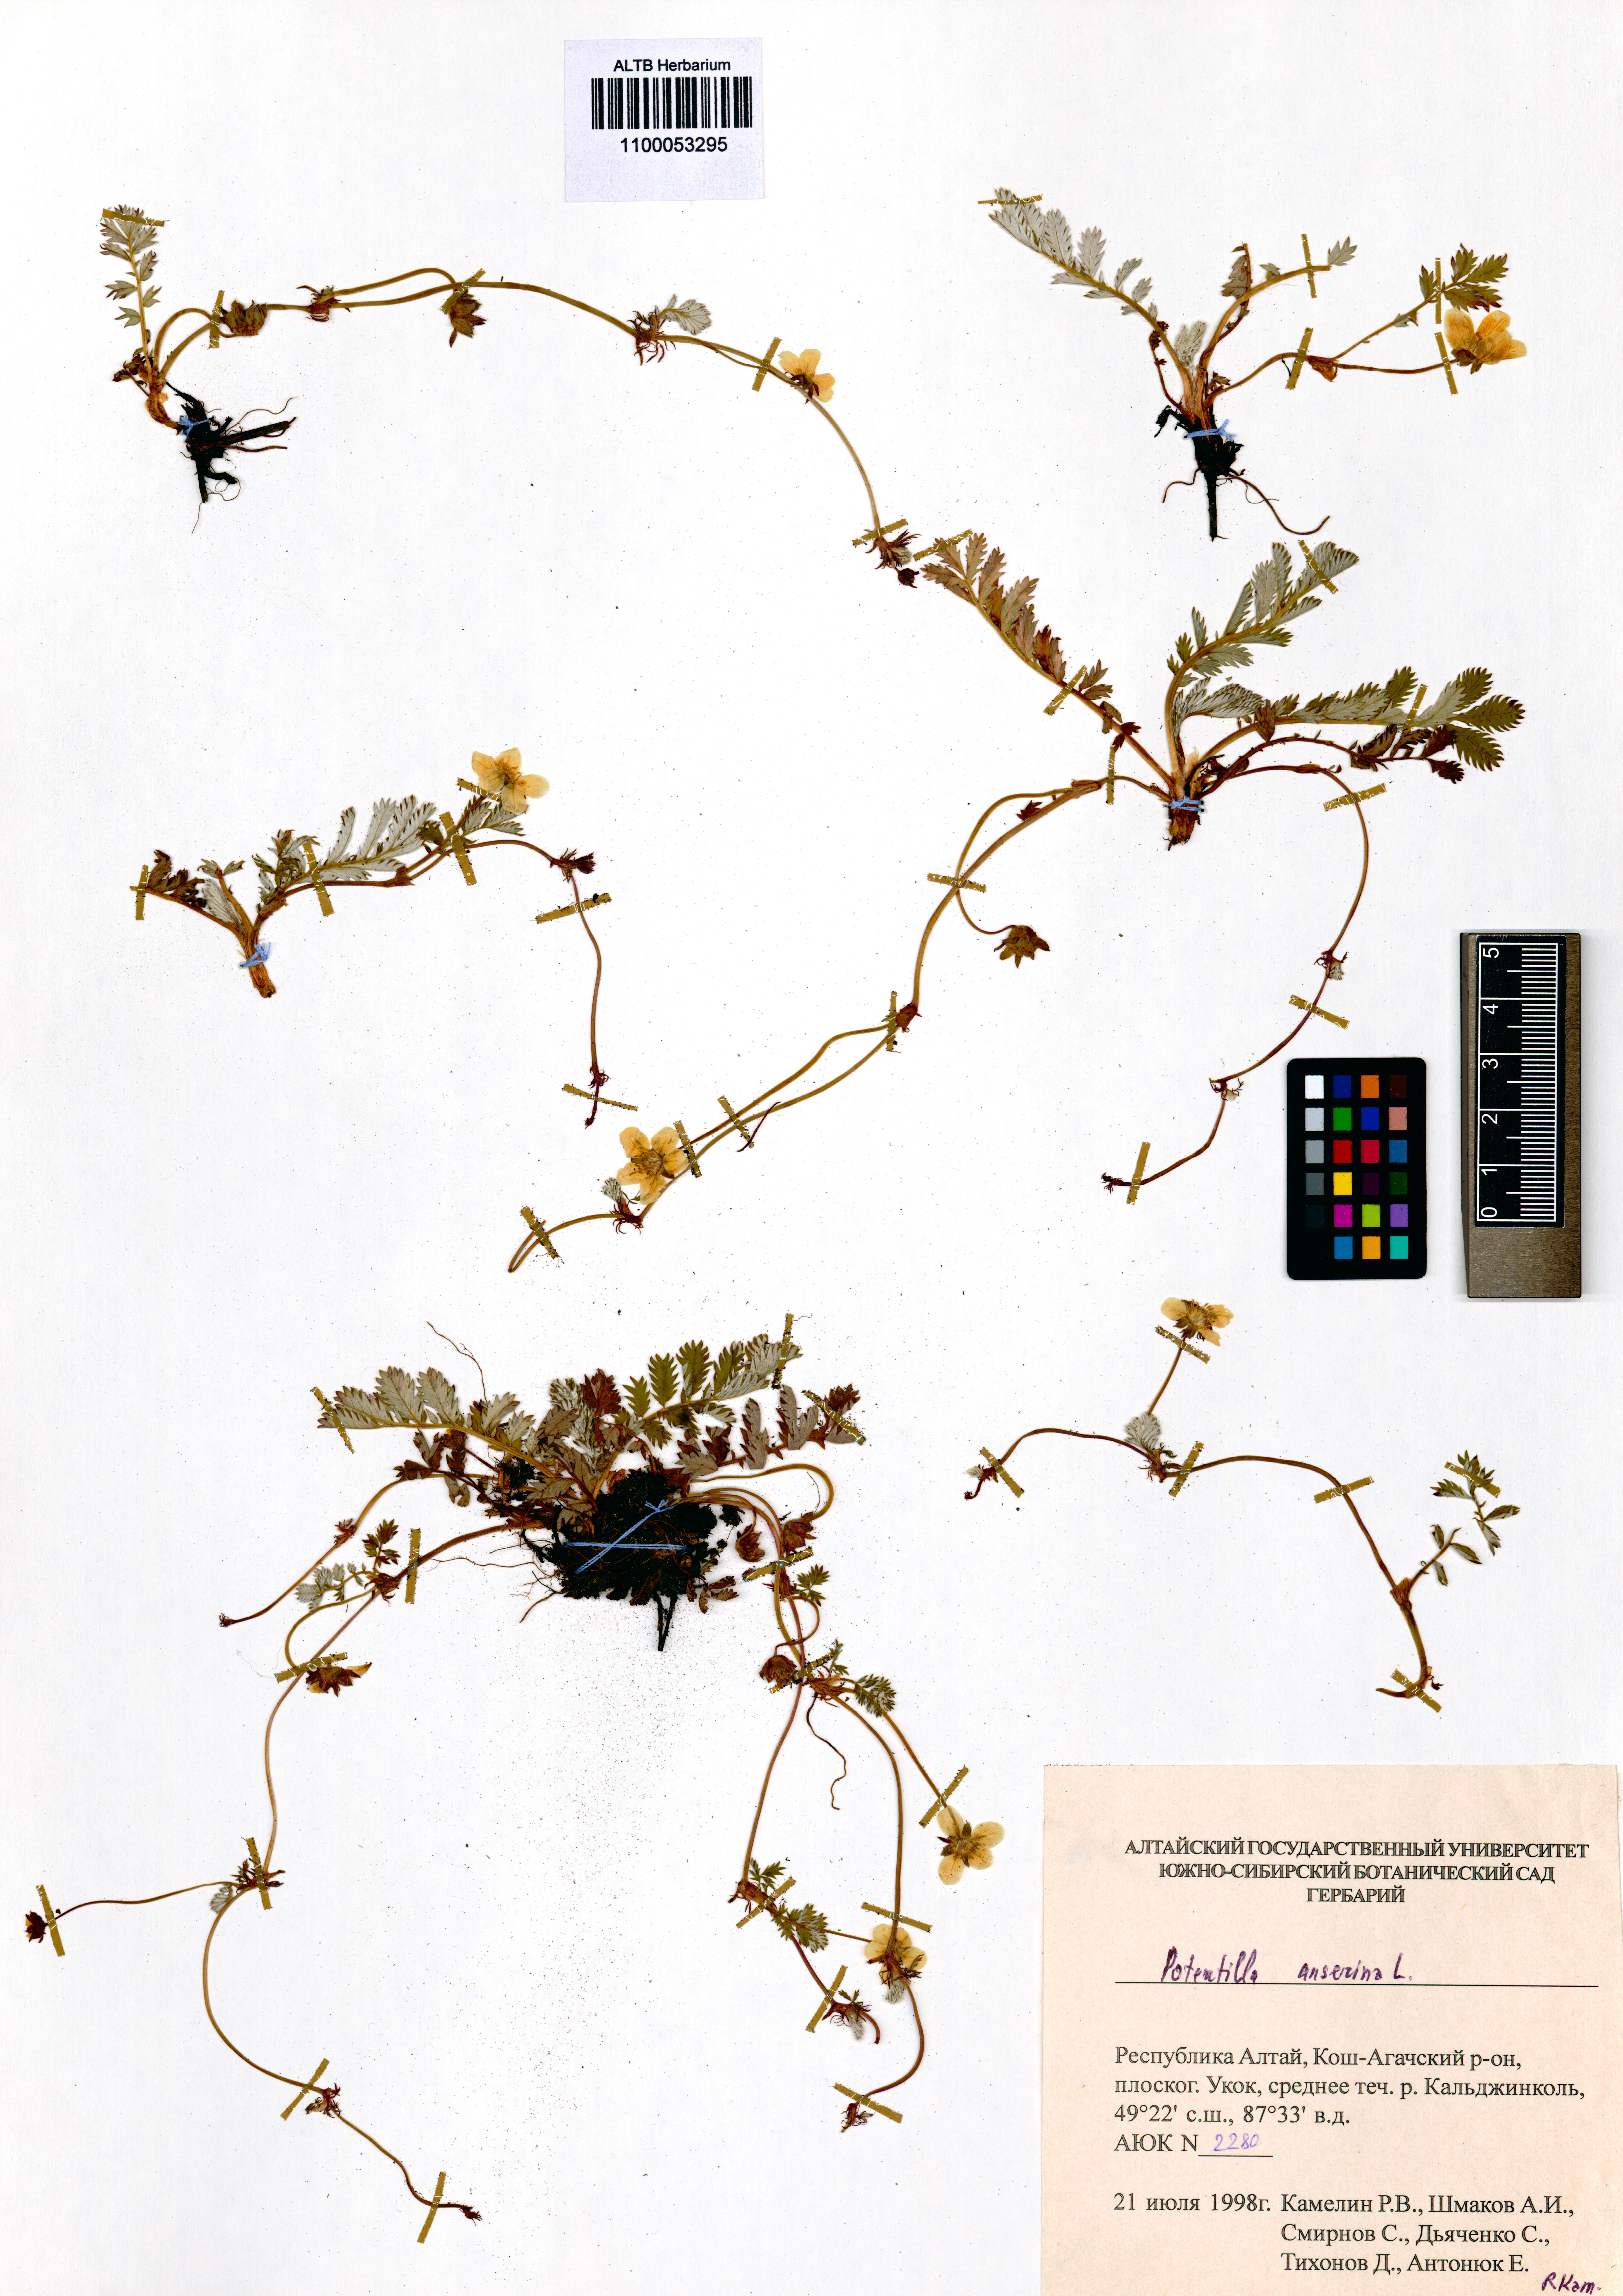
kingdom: Plantae
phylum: Tracheophyta
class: Magnoliopsida
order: Rosales
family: Rosaceae
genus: Argentina
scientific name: Argentina anserina
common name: Common silverweed
